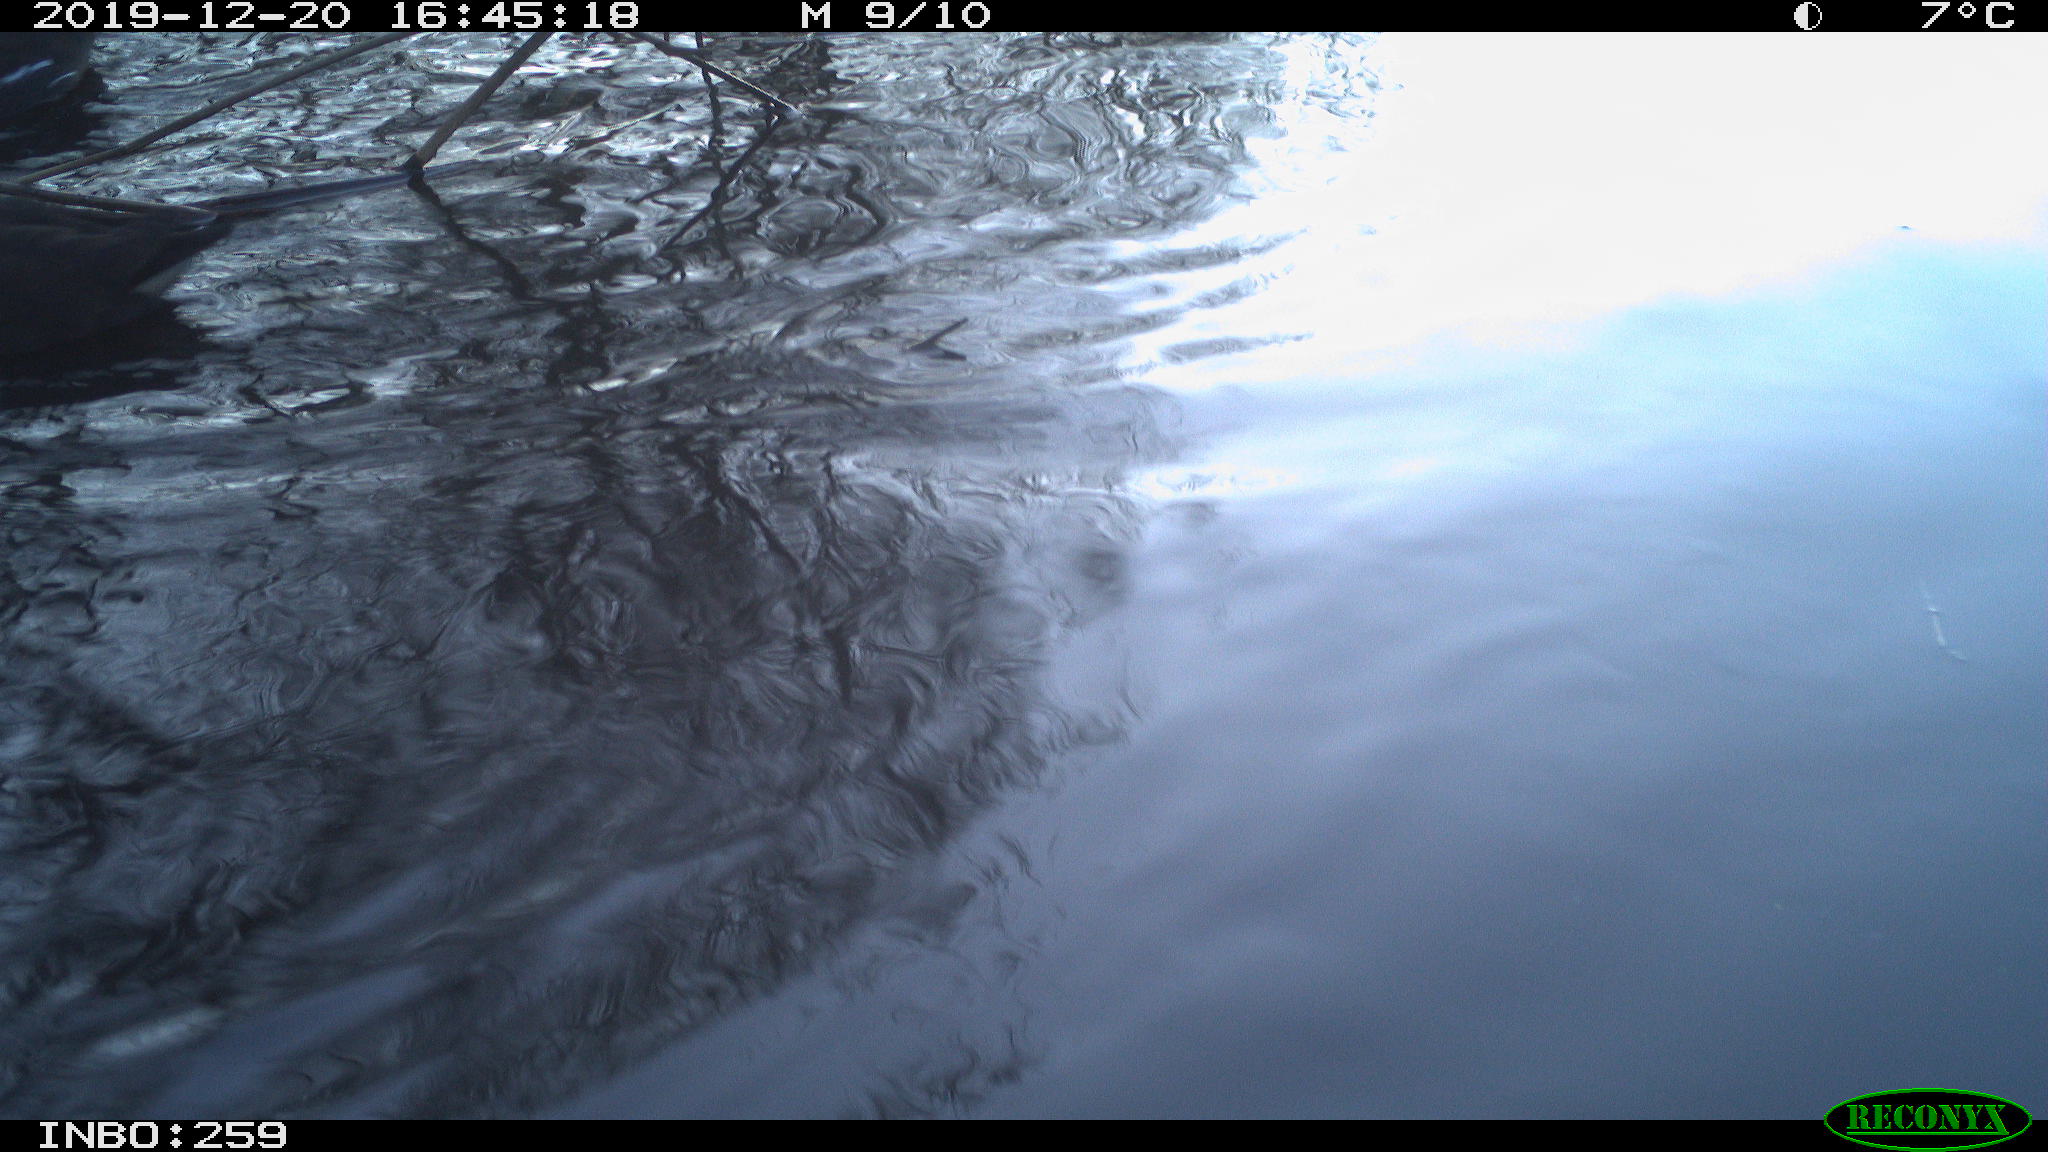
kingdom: Animalia
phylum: Chordata
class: Aves
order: Gruiformes
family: Rallidae
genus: Gallinula
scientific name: Gallinula chloropus
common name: Common moorhen
